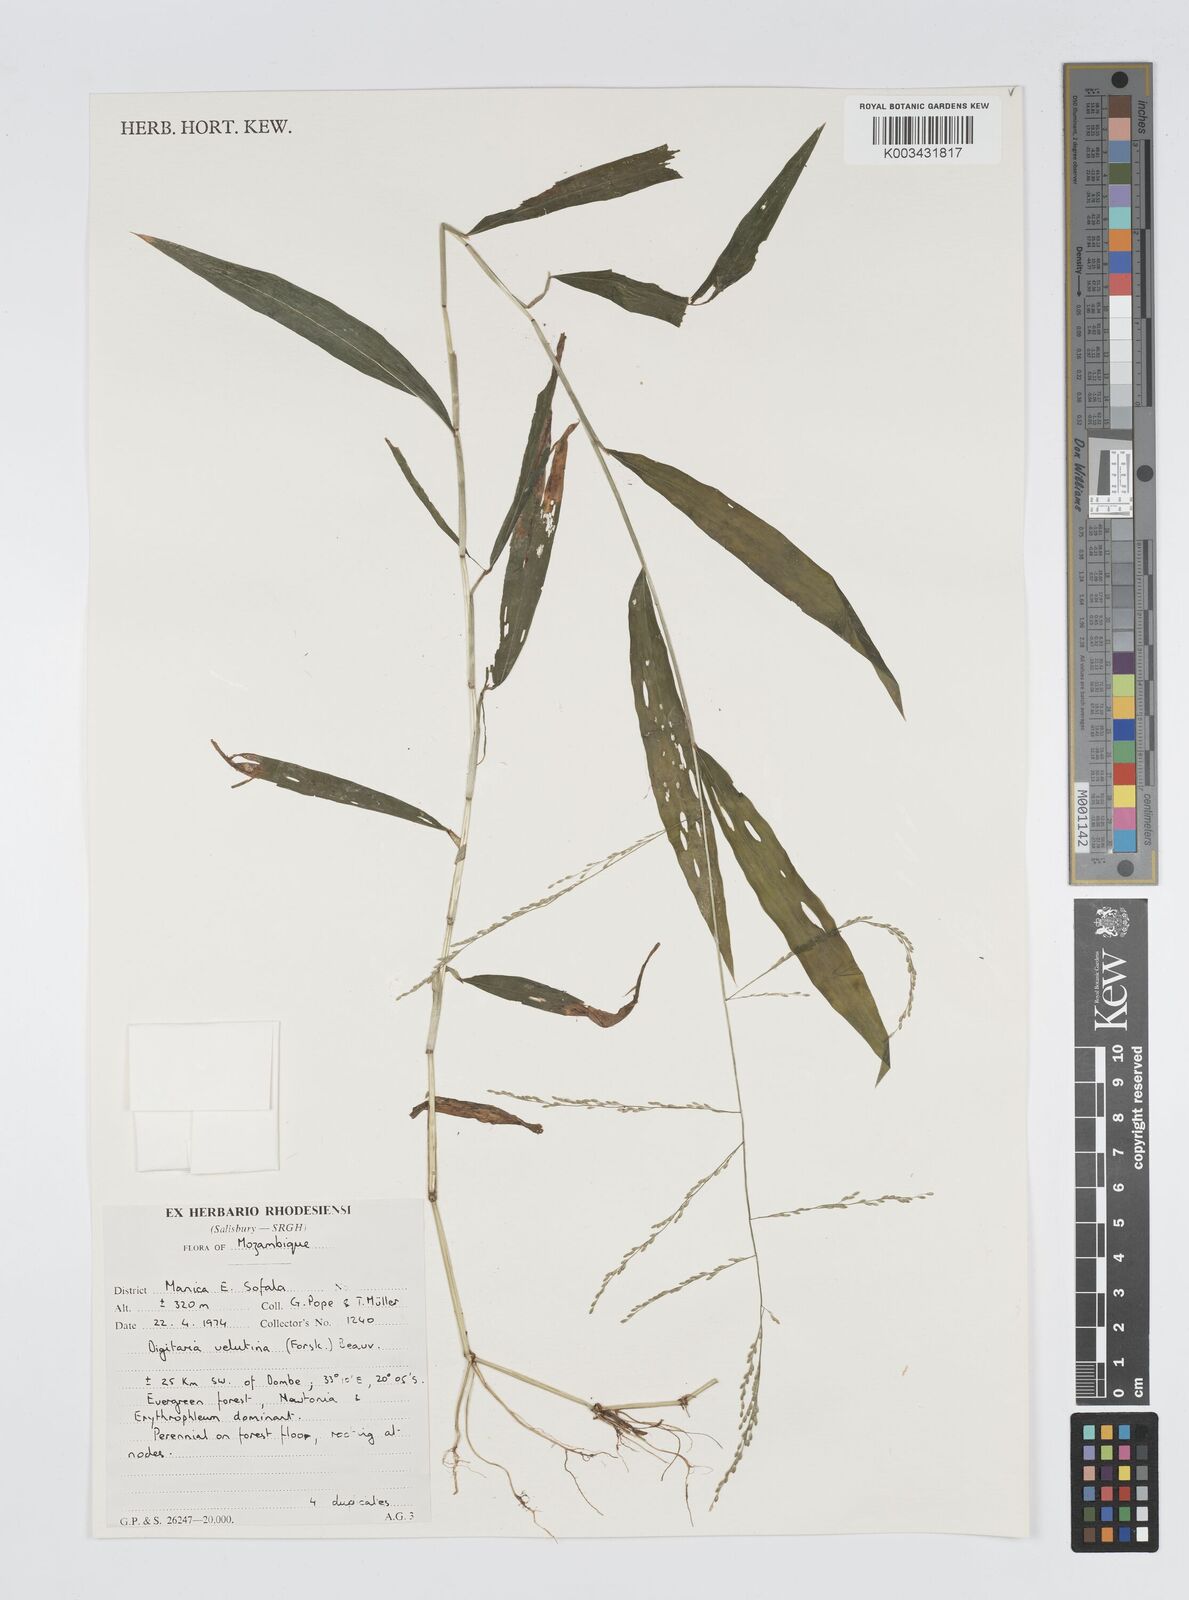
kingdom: Plantae
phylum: Tracheophyta
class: Liliopsida
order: Poales
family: Poaceae
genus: Digitaria
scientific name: Digitaria velutina
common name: Long-plume finger grass
